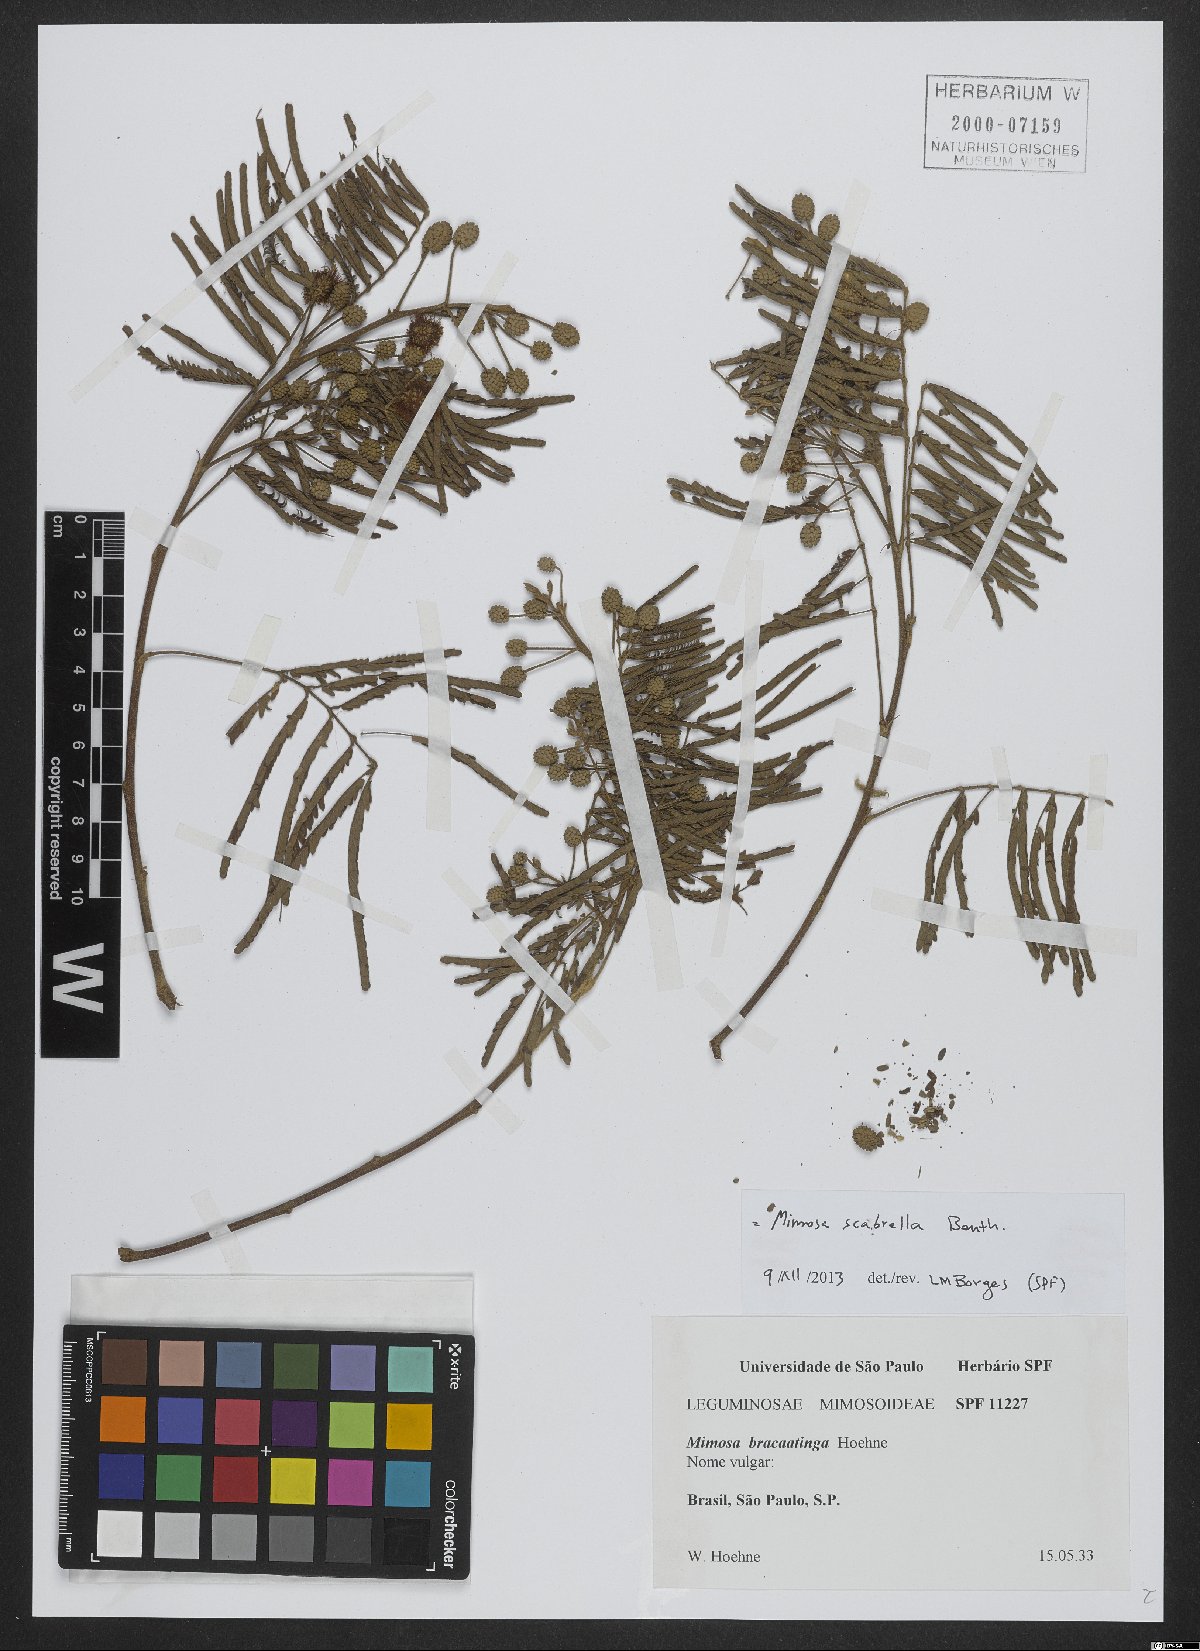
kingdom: Plantae
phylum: Tracheophyta
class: Magnoliopsida
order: Fabales
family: Fabaceae
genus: Mimosa
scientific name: Mimosa scabrella
